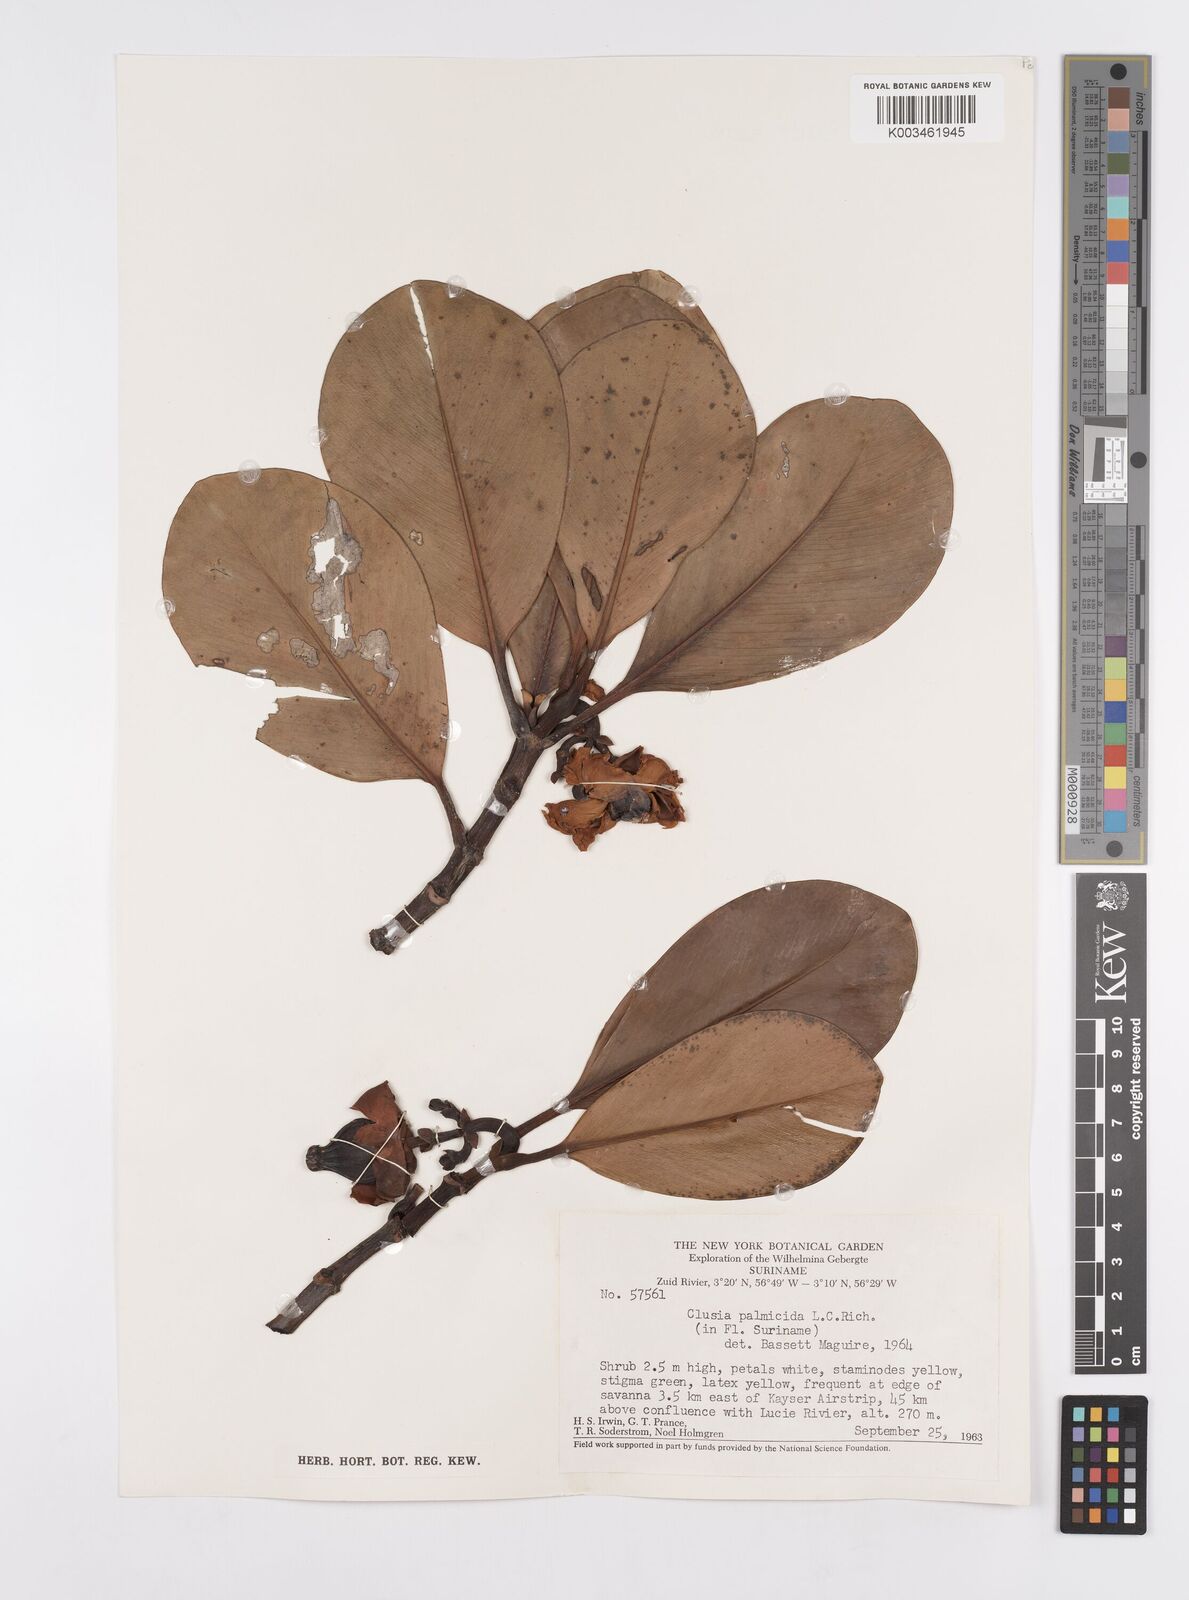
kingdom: Plantae
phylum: Tracheophyta
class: Magnoliopsida
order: Malpighiales
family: Clusiaceae
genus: Clusia
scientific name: Clusia palmicida
